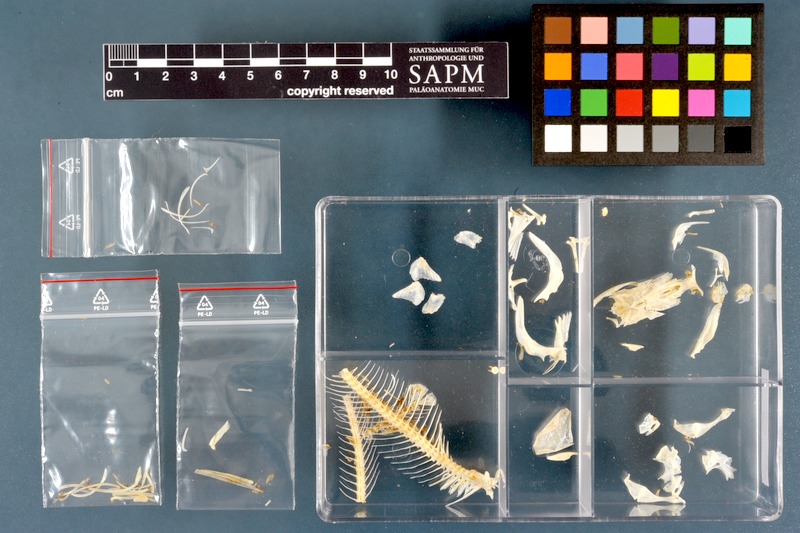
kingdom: Animalia
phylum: Chordata
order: Siluriformes
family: Schilbeidae
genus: Schilbe
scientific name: Schilbe uranoscopus
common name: Egyptian butter catfish
